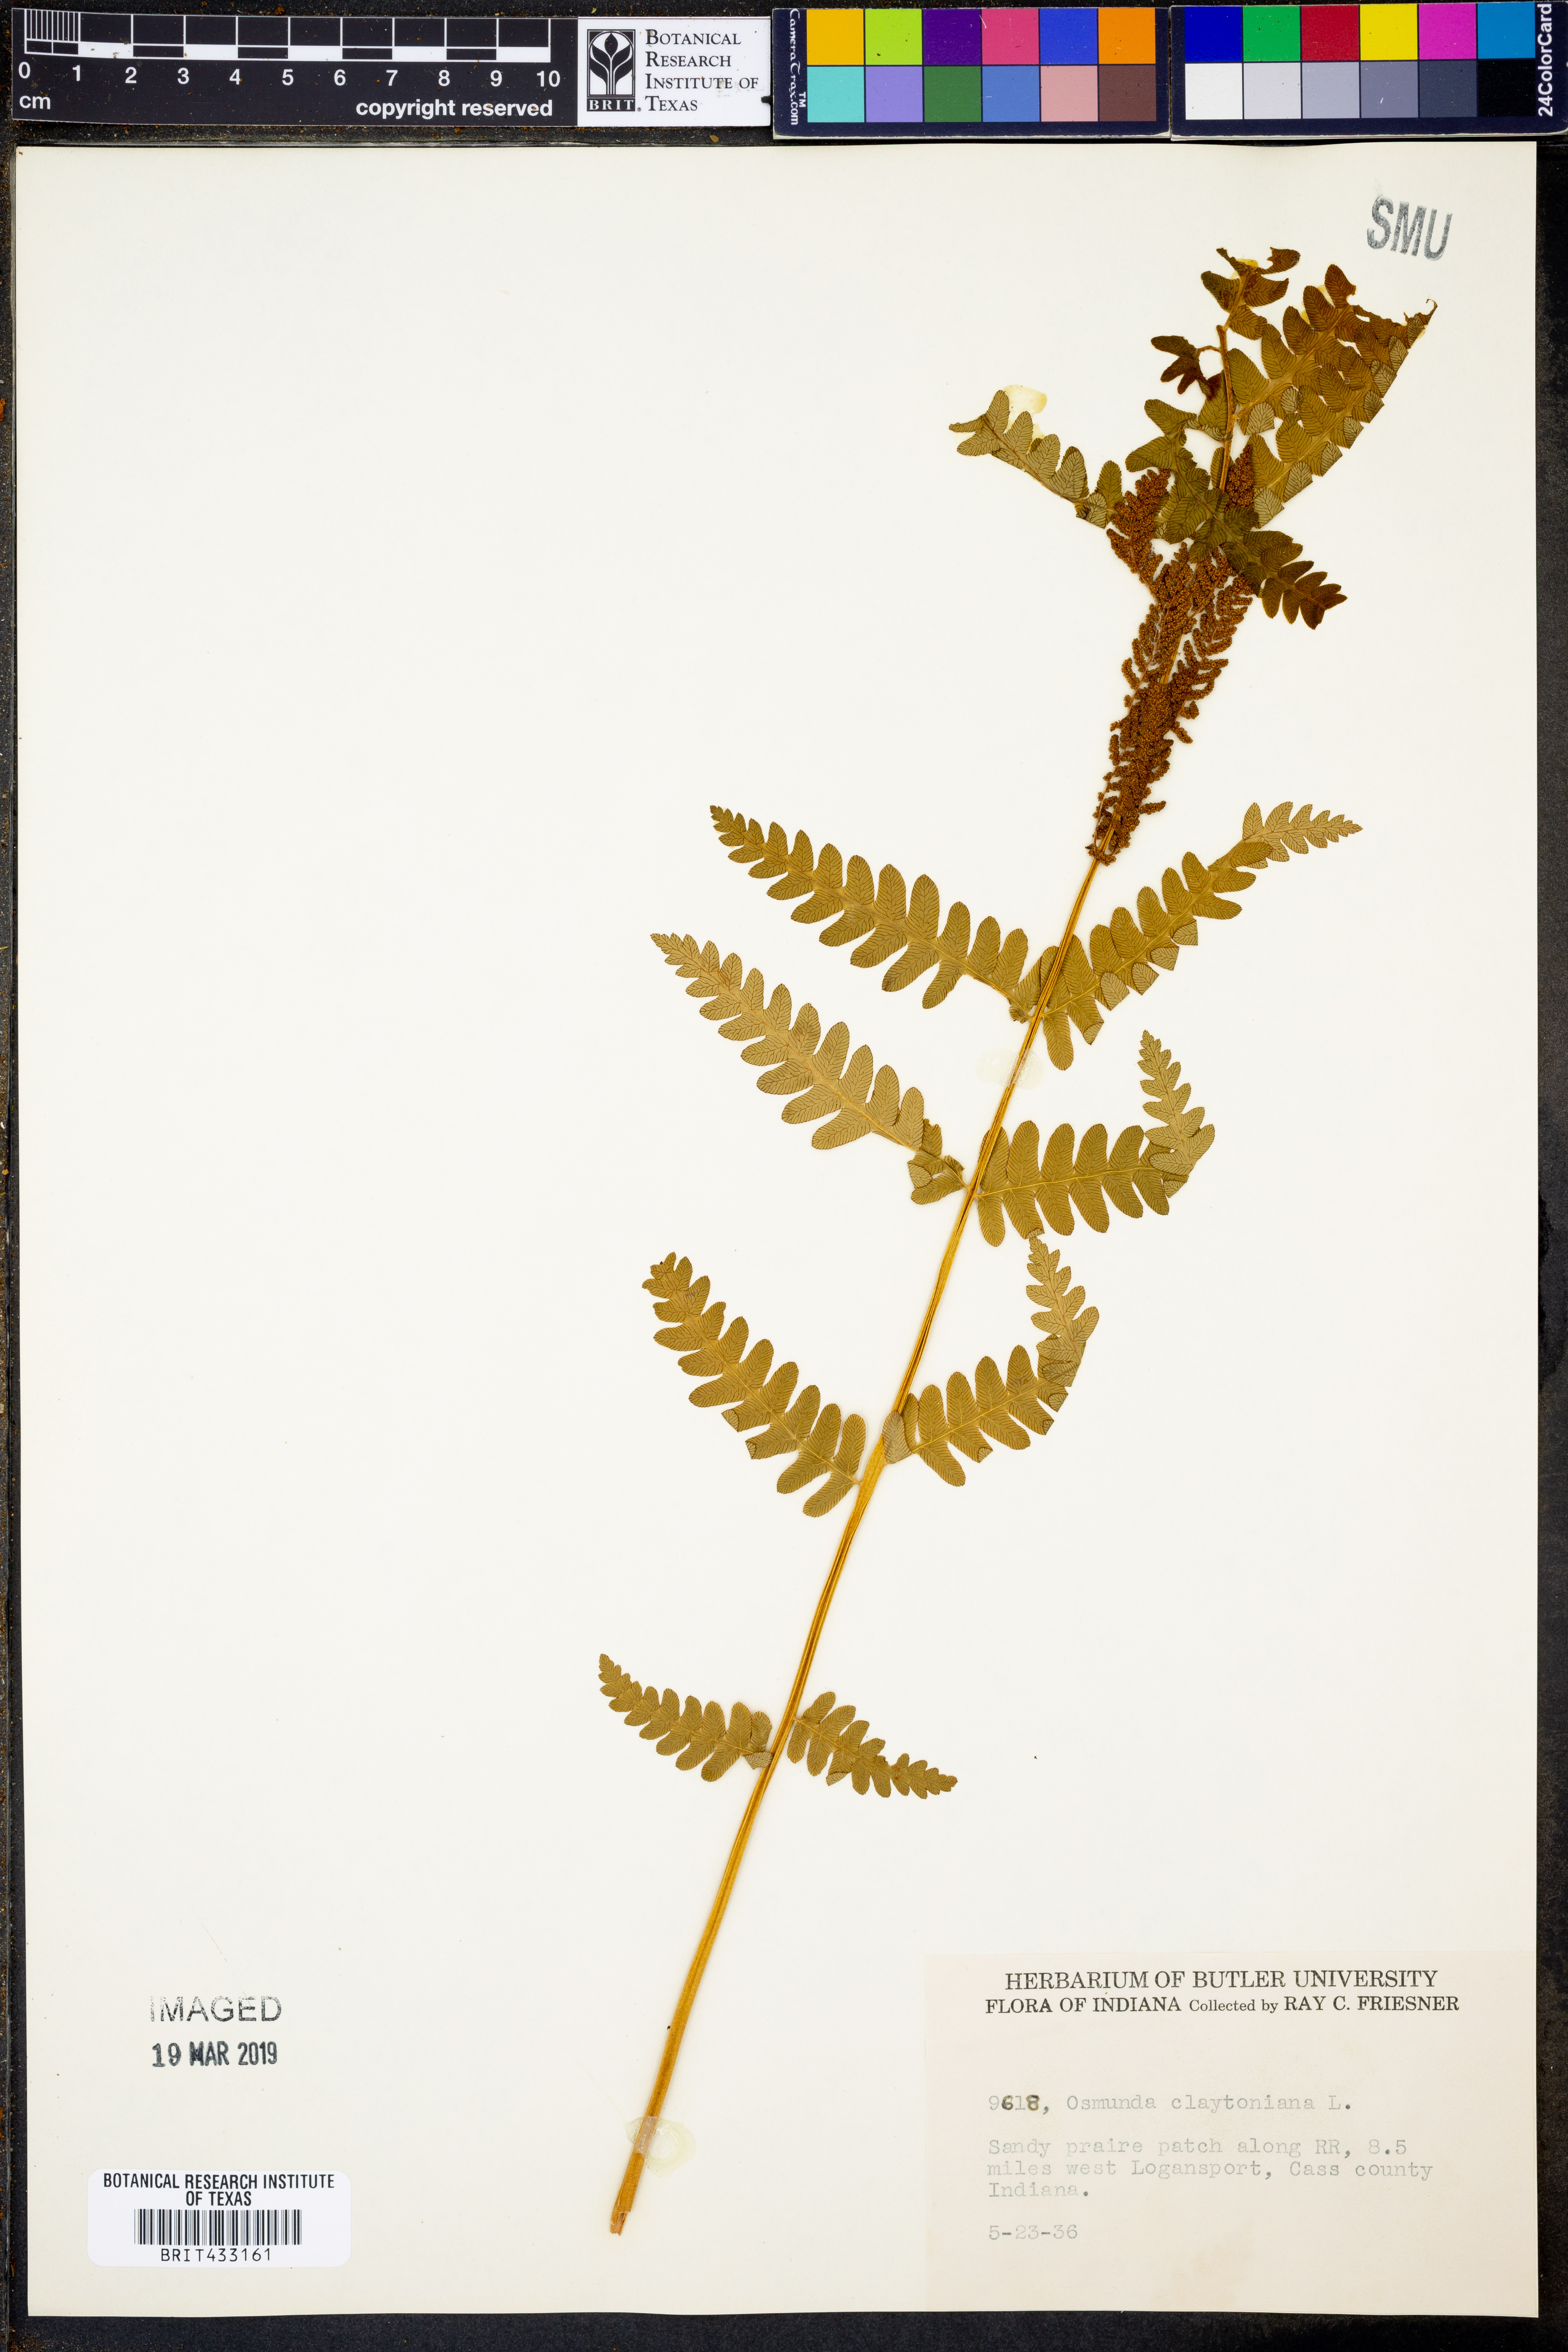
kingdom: Plantae
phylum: Tracheophyta
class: Polypodiopsida
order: Osmundales
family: Osmundaceae
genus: Claytosmunda
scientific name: Claytosmunda claytoniana
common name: Clayton's fern
